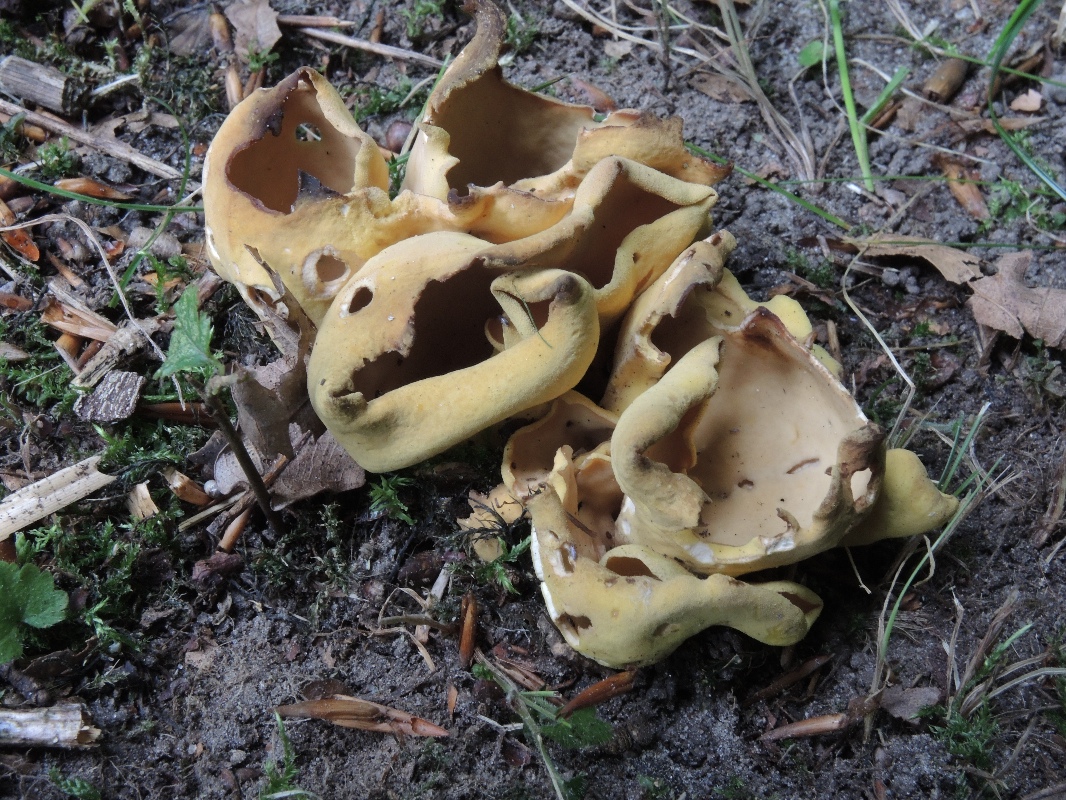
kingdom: Fungi
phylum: Ascomycota
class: Pezizomycetes
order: Pezizales
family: Otideaceae
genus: Otidea
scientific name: Otidea cantharella
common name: citrongul ørebæger
